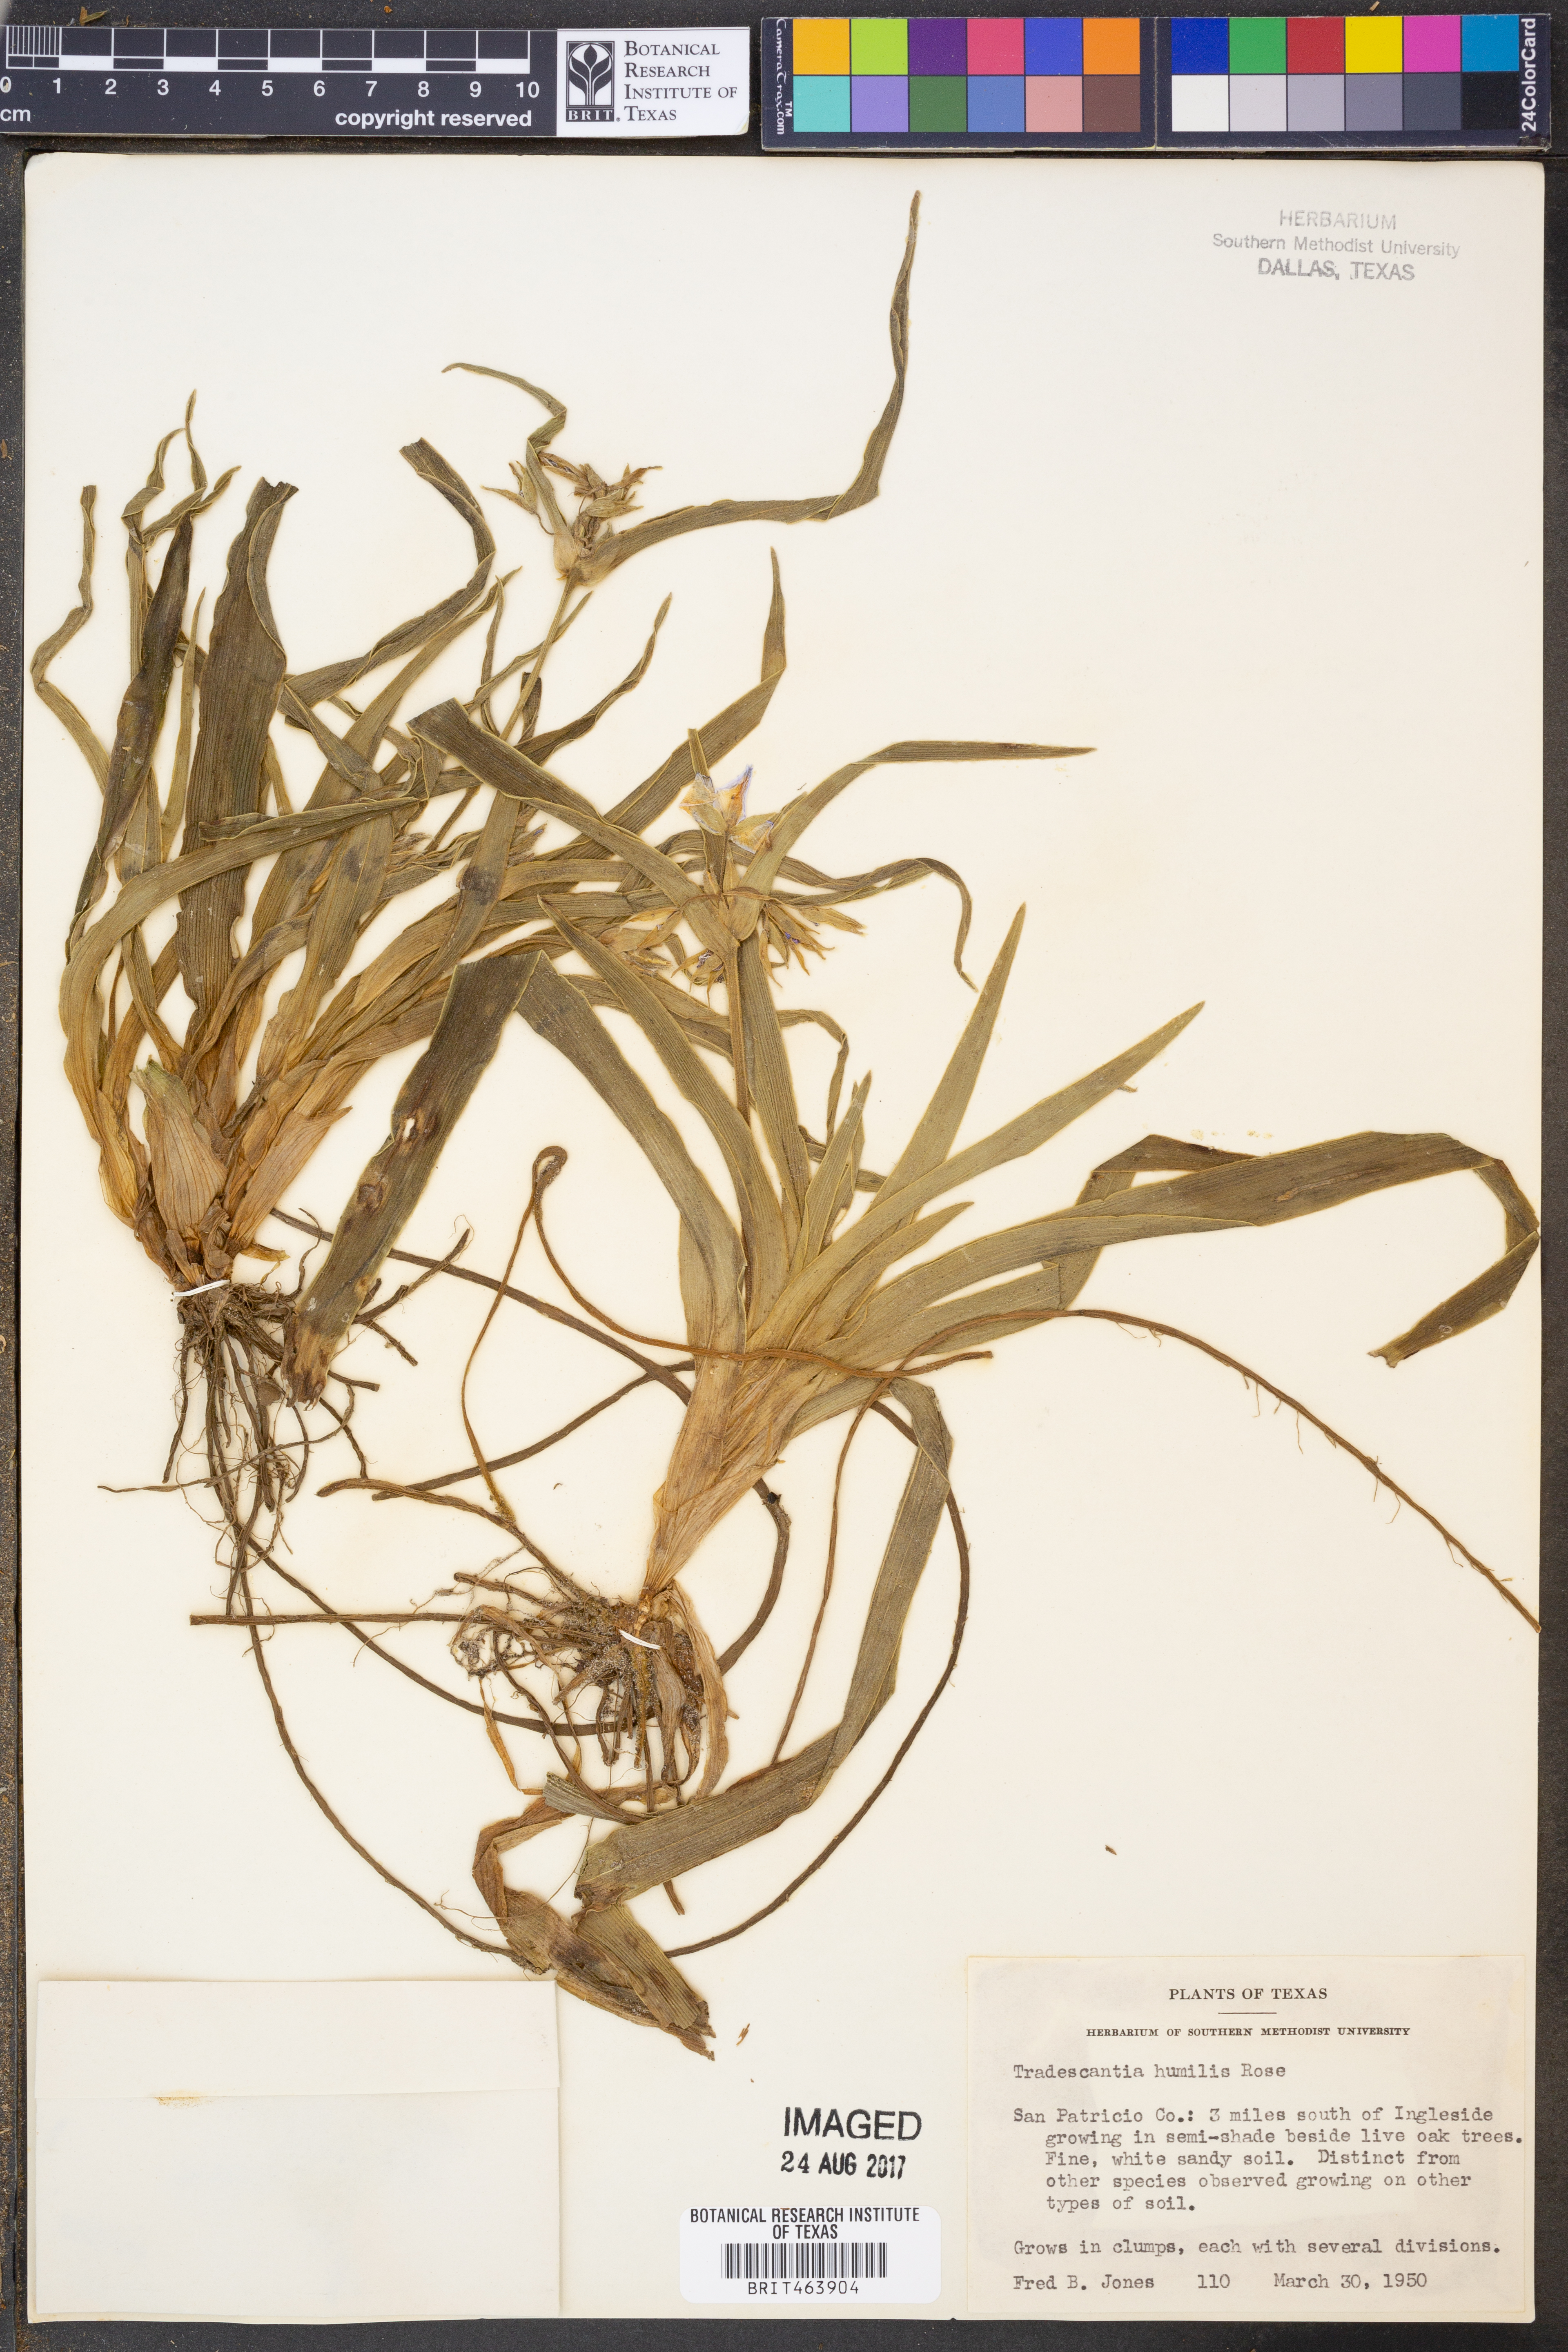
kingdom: Plantae
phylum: Tracheophyta
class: Liliopsida
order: Commelinales
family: Commelinaceae
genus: Tradescantia
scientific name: Tradescantia humilis
